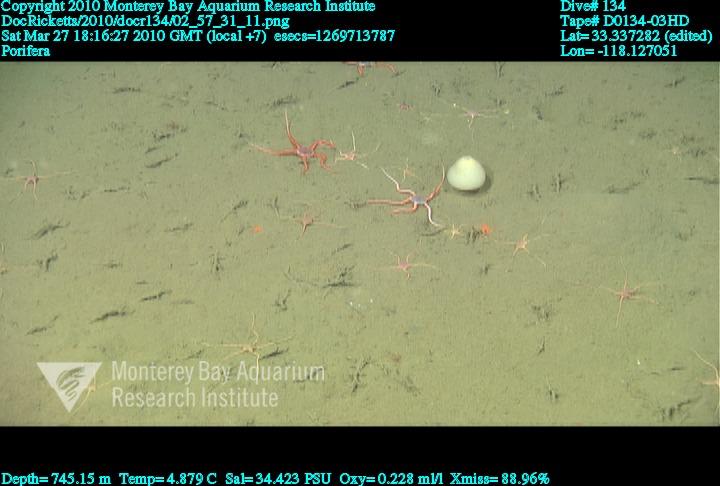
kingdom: Animalia
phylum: Porifera
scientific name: Porifera
